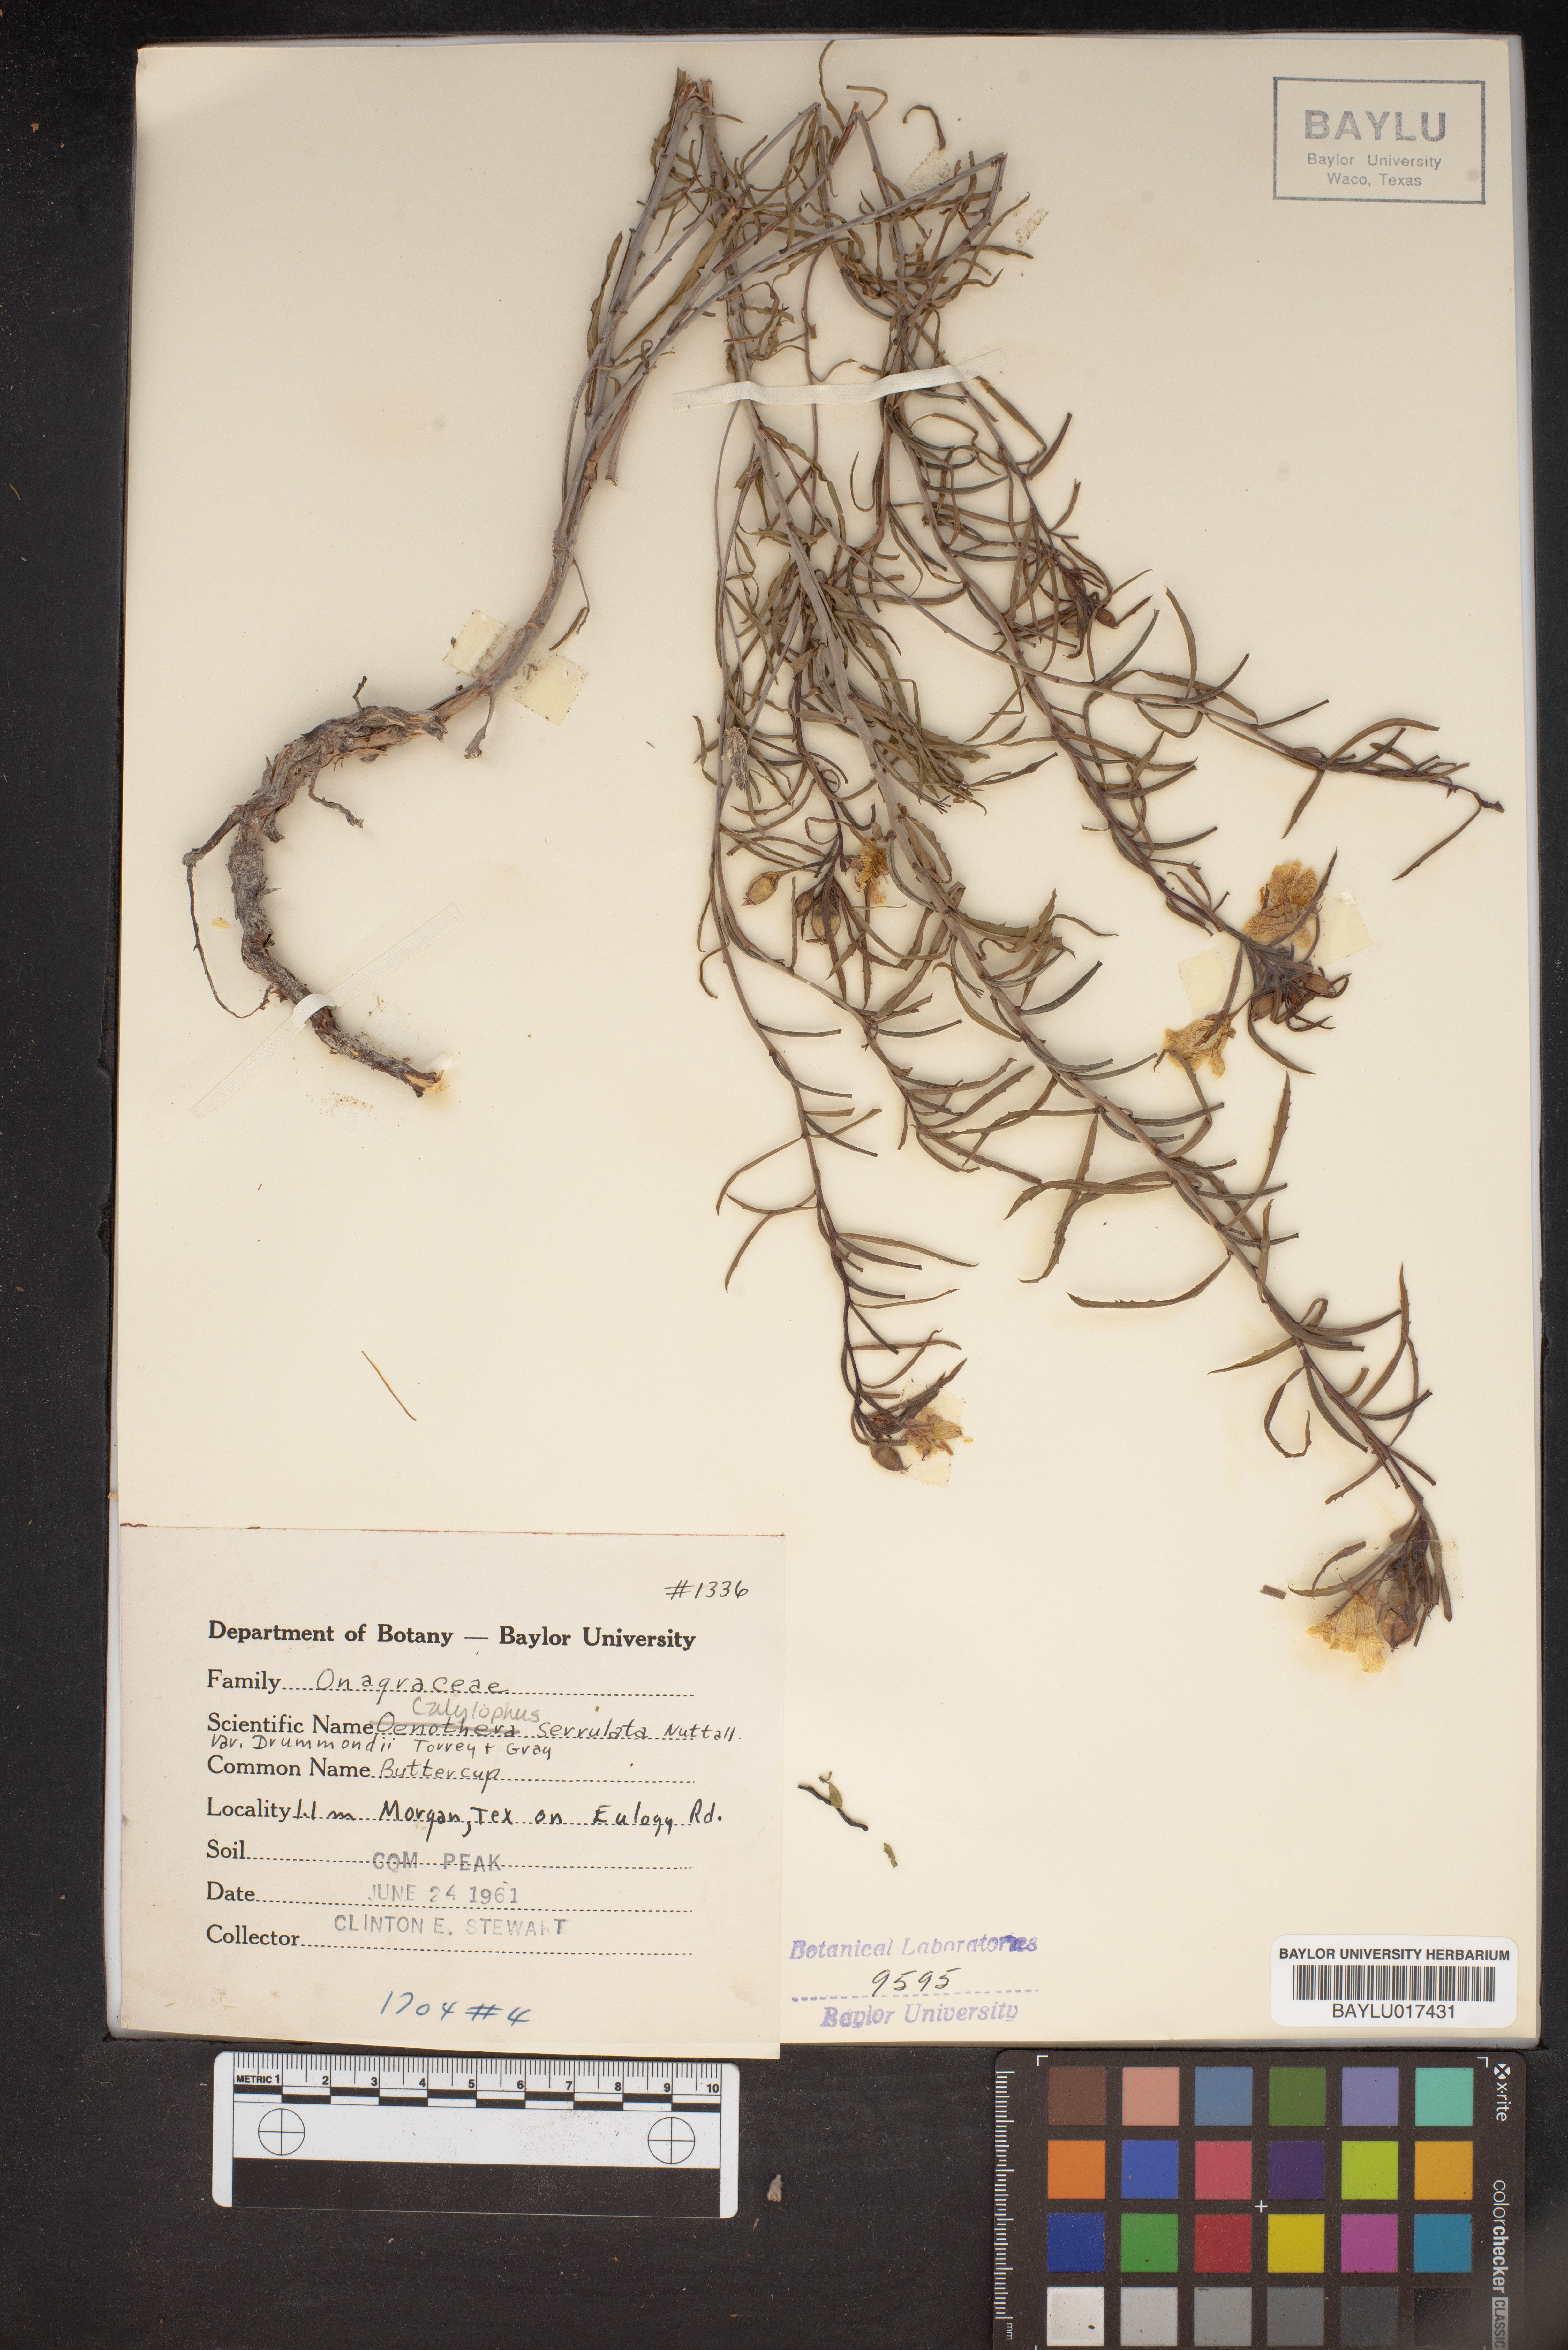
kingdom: Plantae
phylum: Tracheophyta
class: Magnoliopsida
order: Myrtales
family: Onagraceae
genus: Oenothera
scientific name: Oenothera serrulata
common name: Half-shrub calylophus
